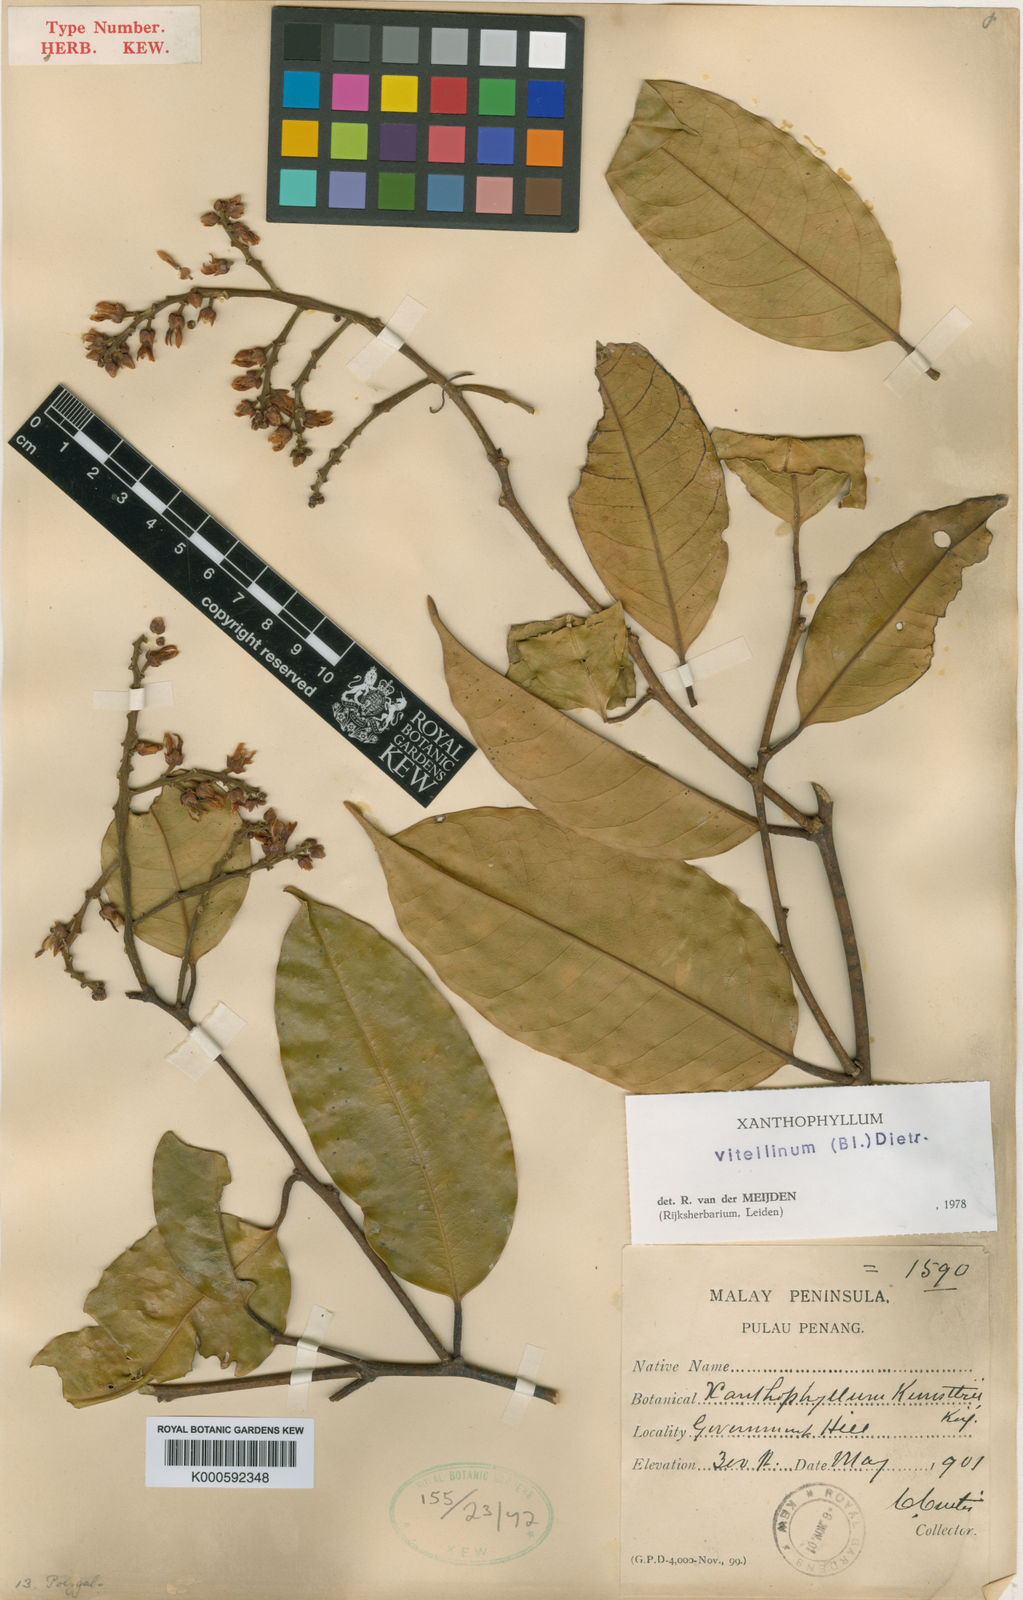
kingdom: Plantae
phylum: Tracheophyta
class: Magnoliopsida
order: Fabales
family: Polygalaceae
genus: Xanthophyllum
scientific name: Xanthophyllum vitellinum
